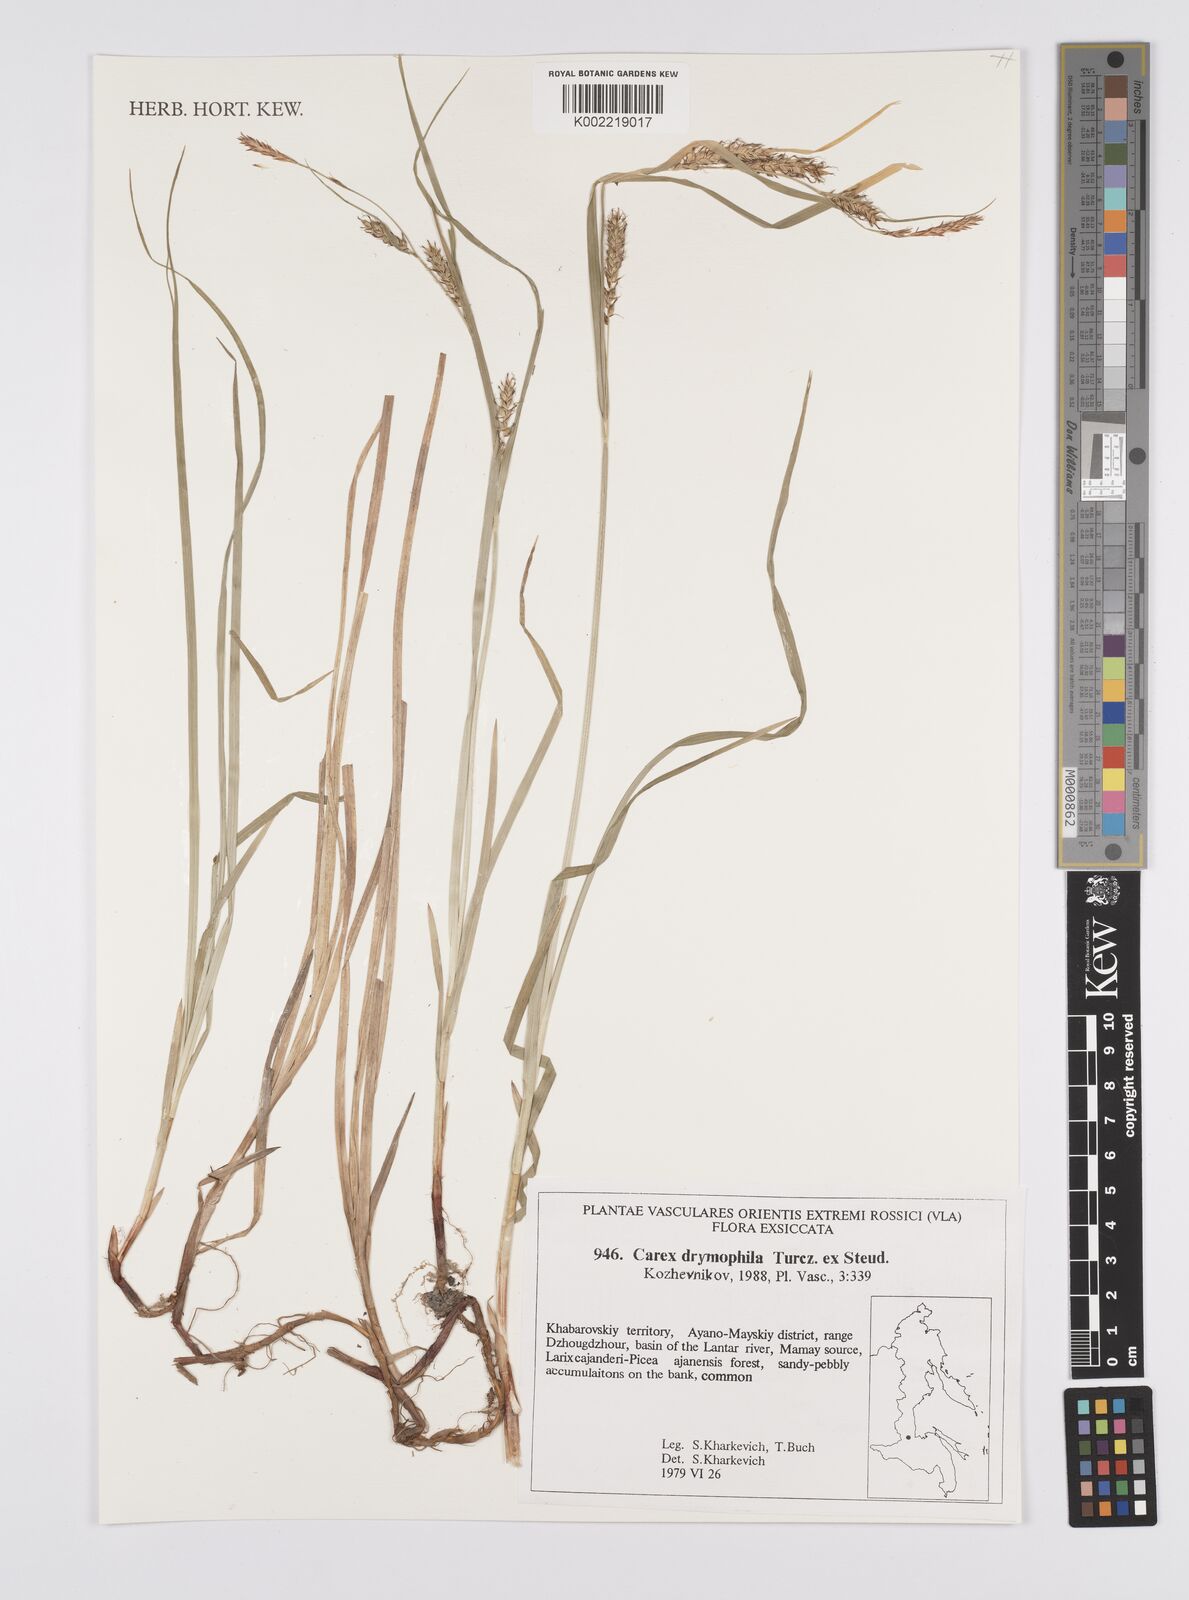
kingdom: Plantae
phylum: Tracheophyta
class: Liliopsida
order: Poales
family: Cyperaceae
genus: Carex
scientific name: Carex drymophila
